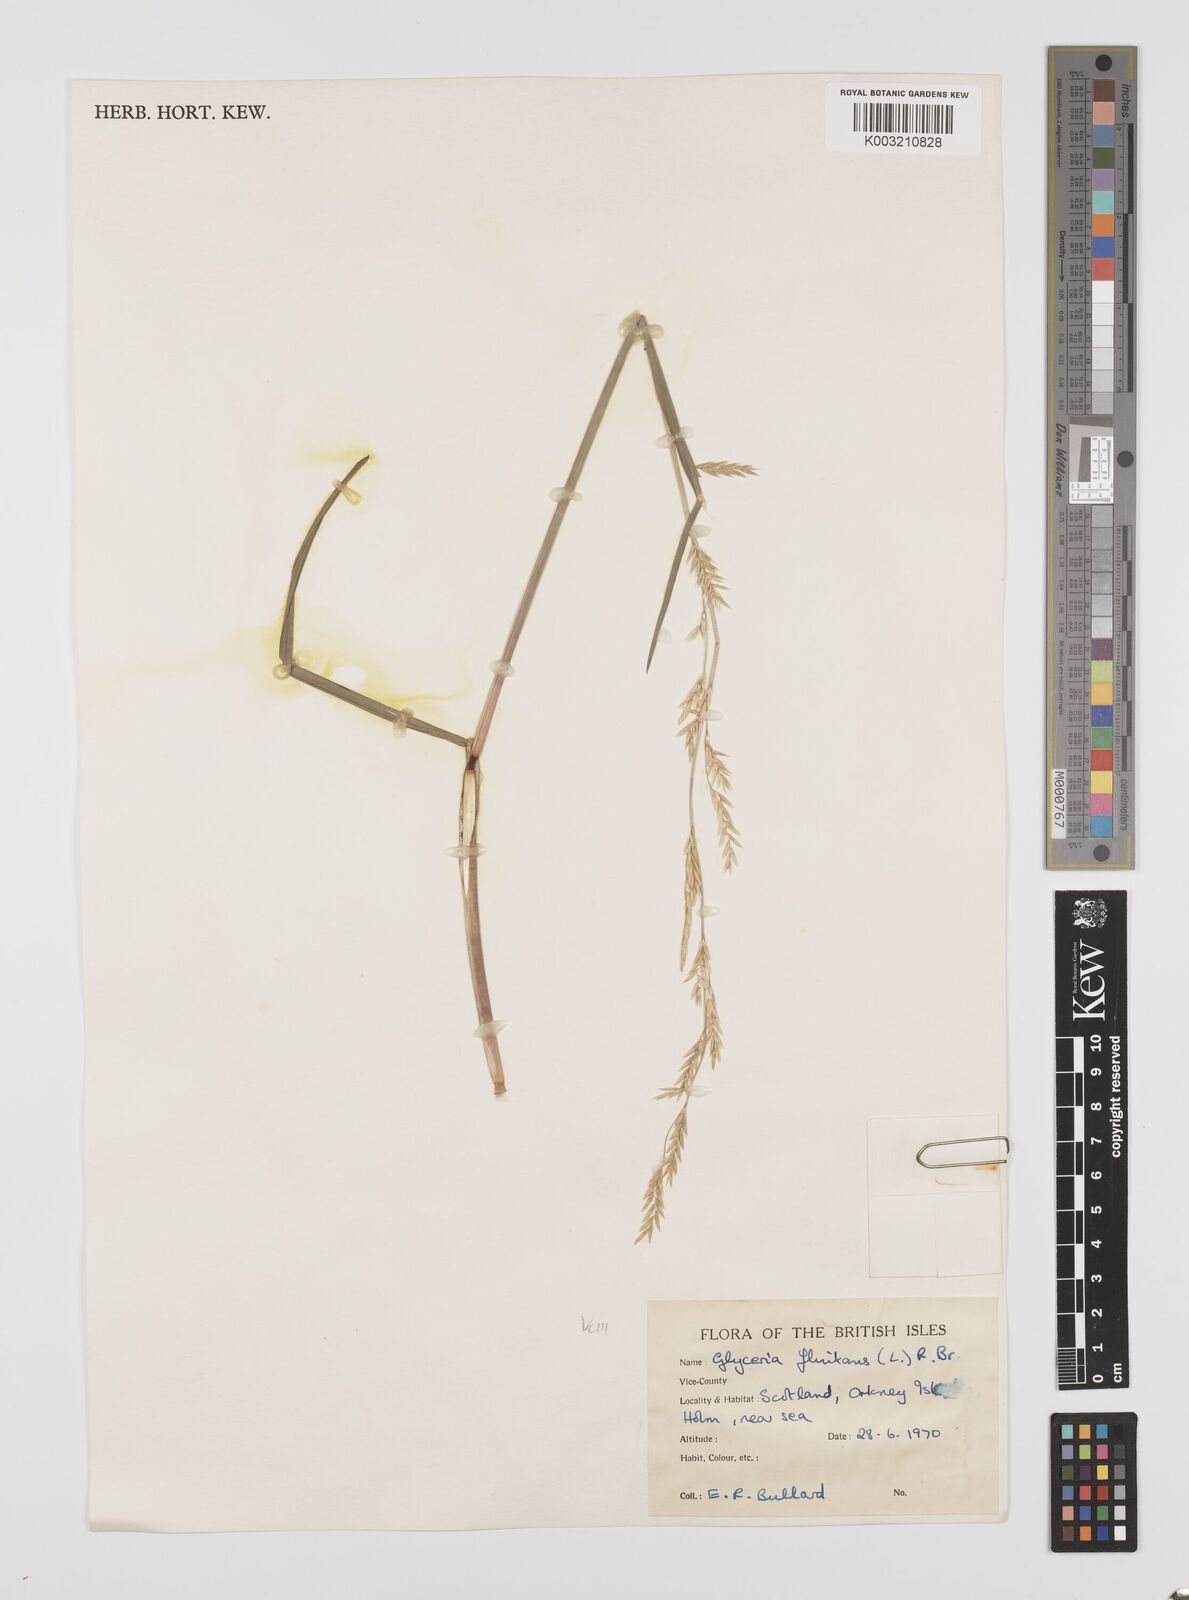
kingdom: Plantae
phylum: Tracheophyta
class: Liliopsida
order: Poales
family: Poaceae
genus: Glyceria
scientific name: Glyceria fluitans
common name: Floating sweet-grass
